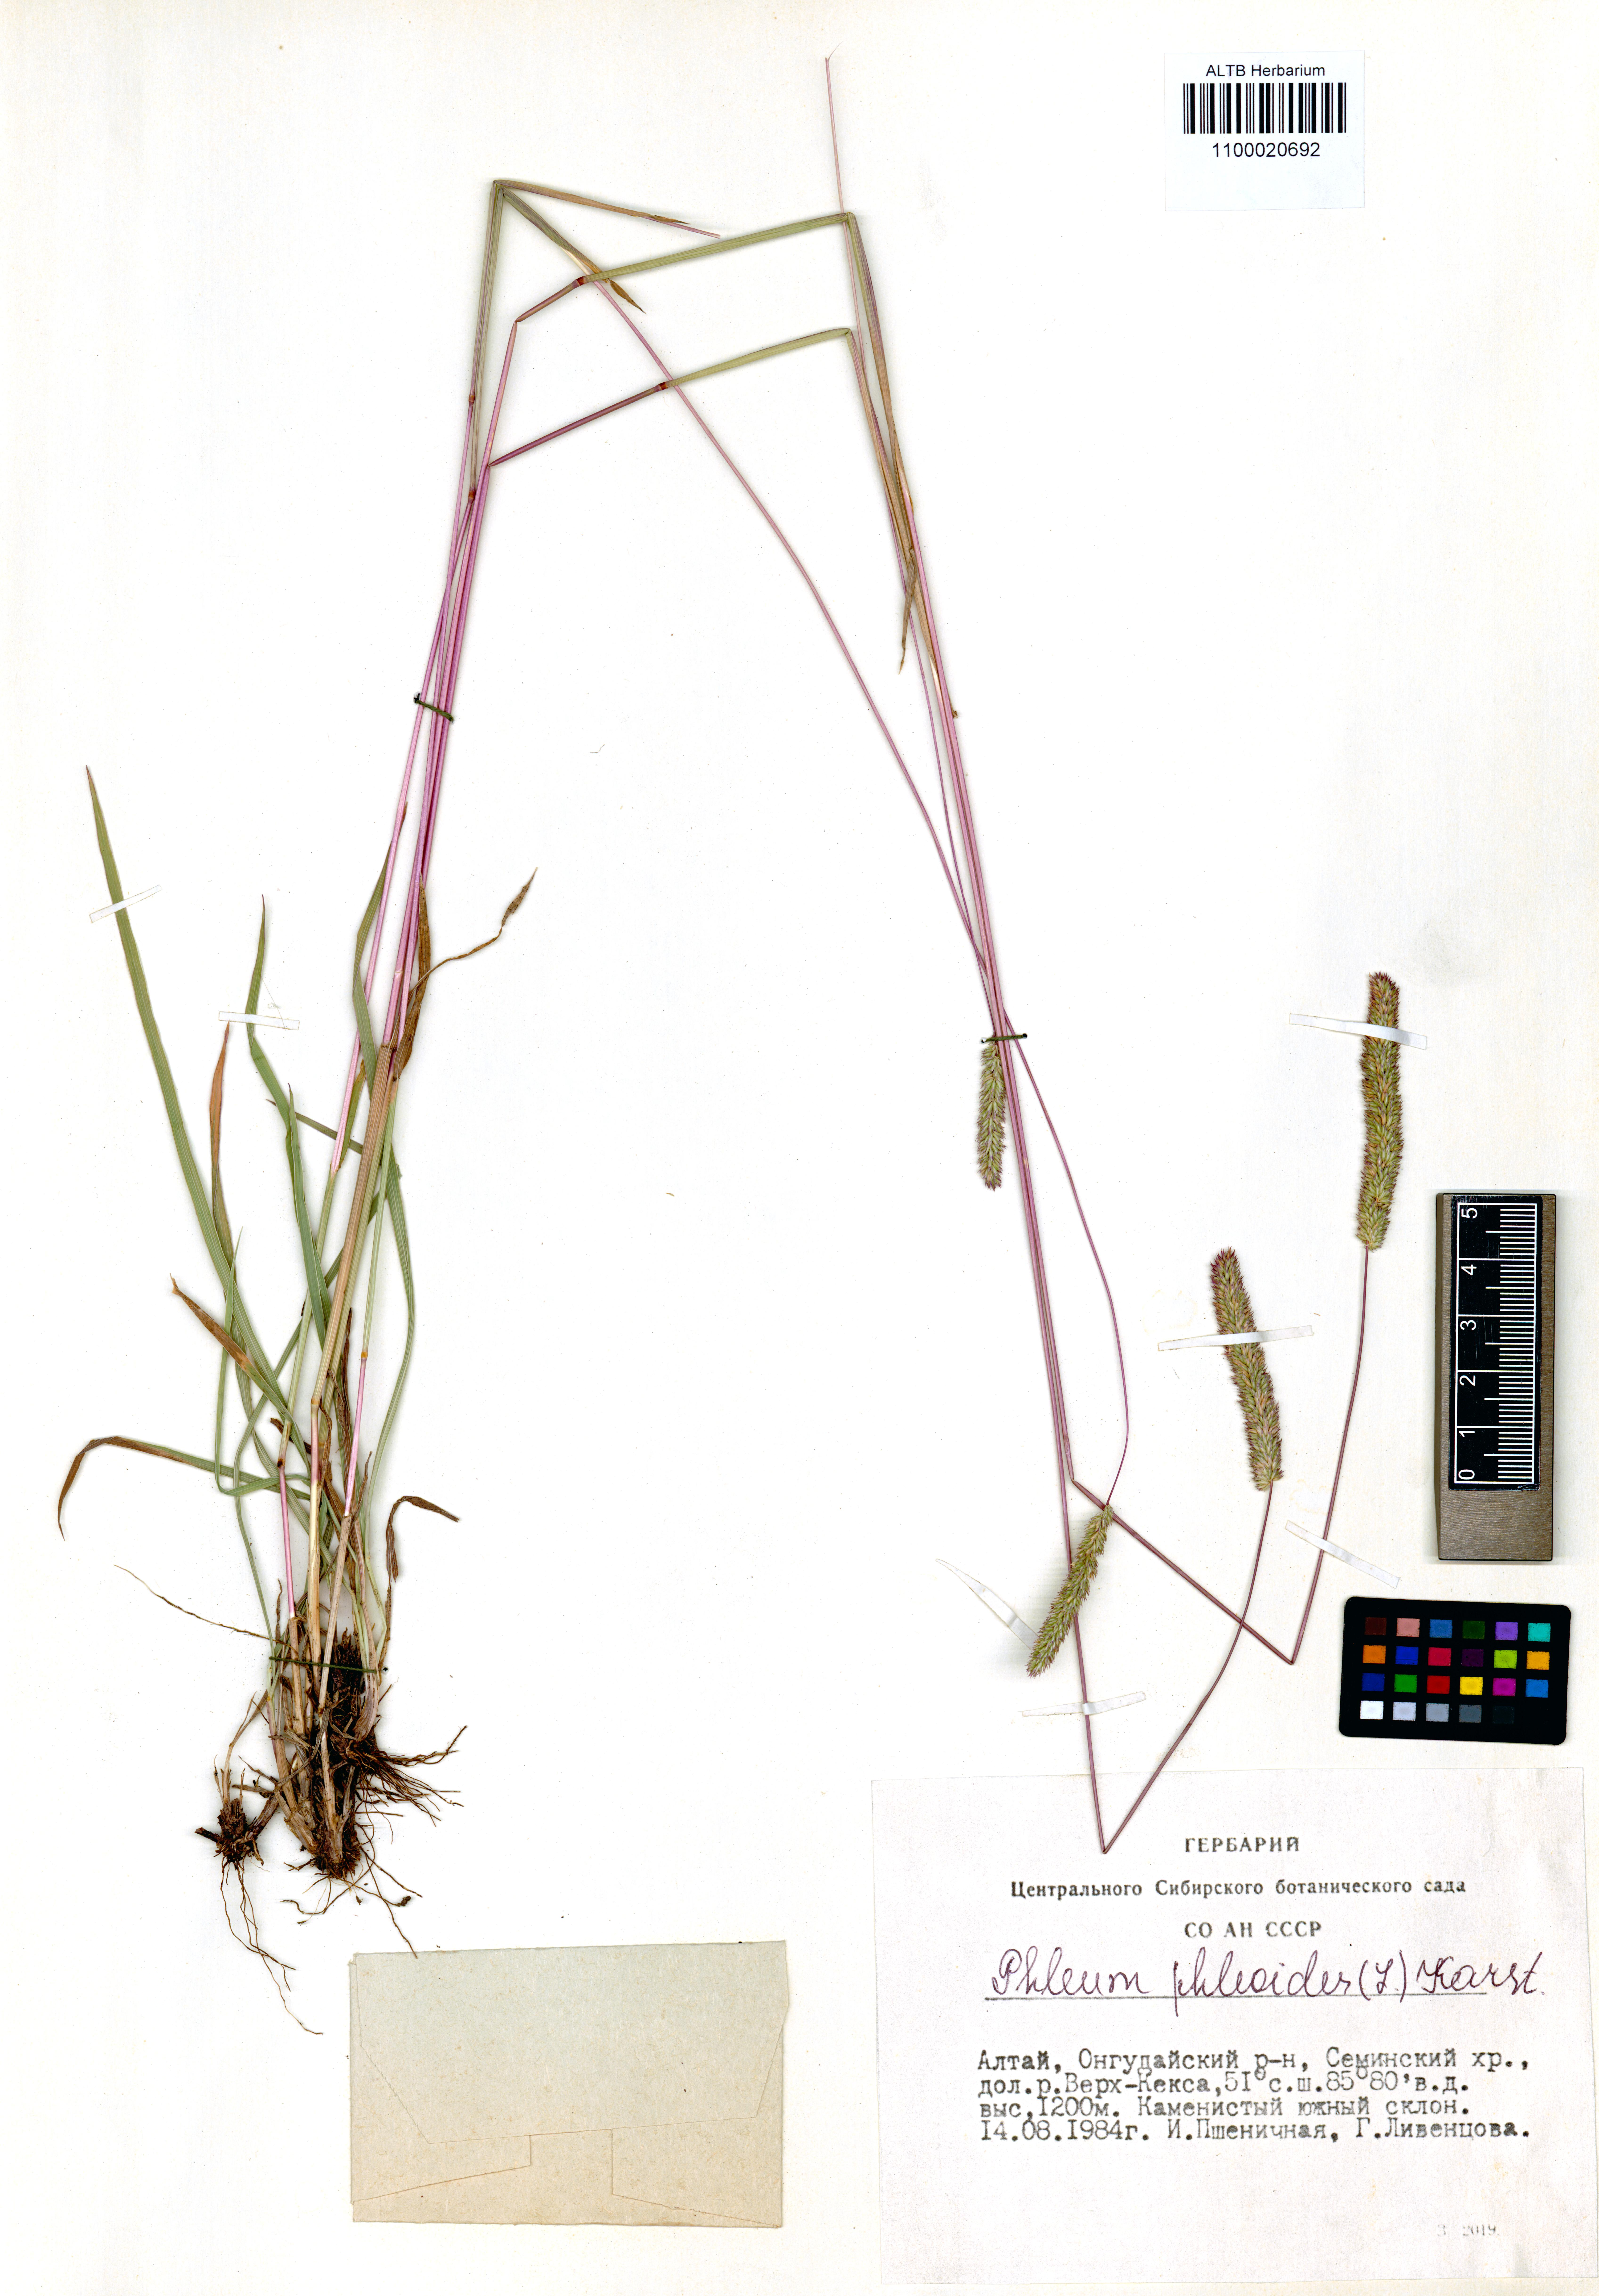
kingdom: Plantae
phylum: Tracheophyta
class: Liliopsida
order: Poales
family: Poaceae
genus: Phleum
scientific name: Phleum phleoides
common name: Purple-stem cat's-tail
